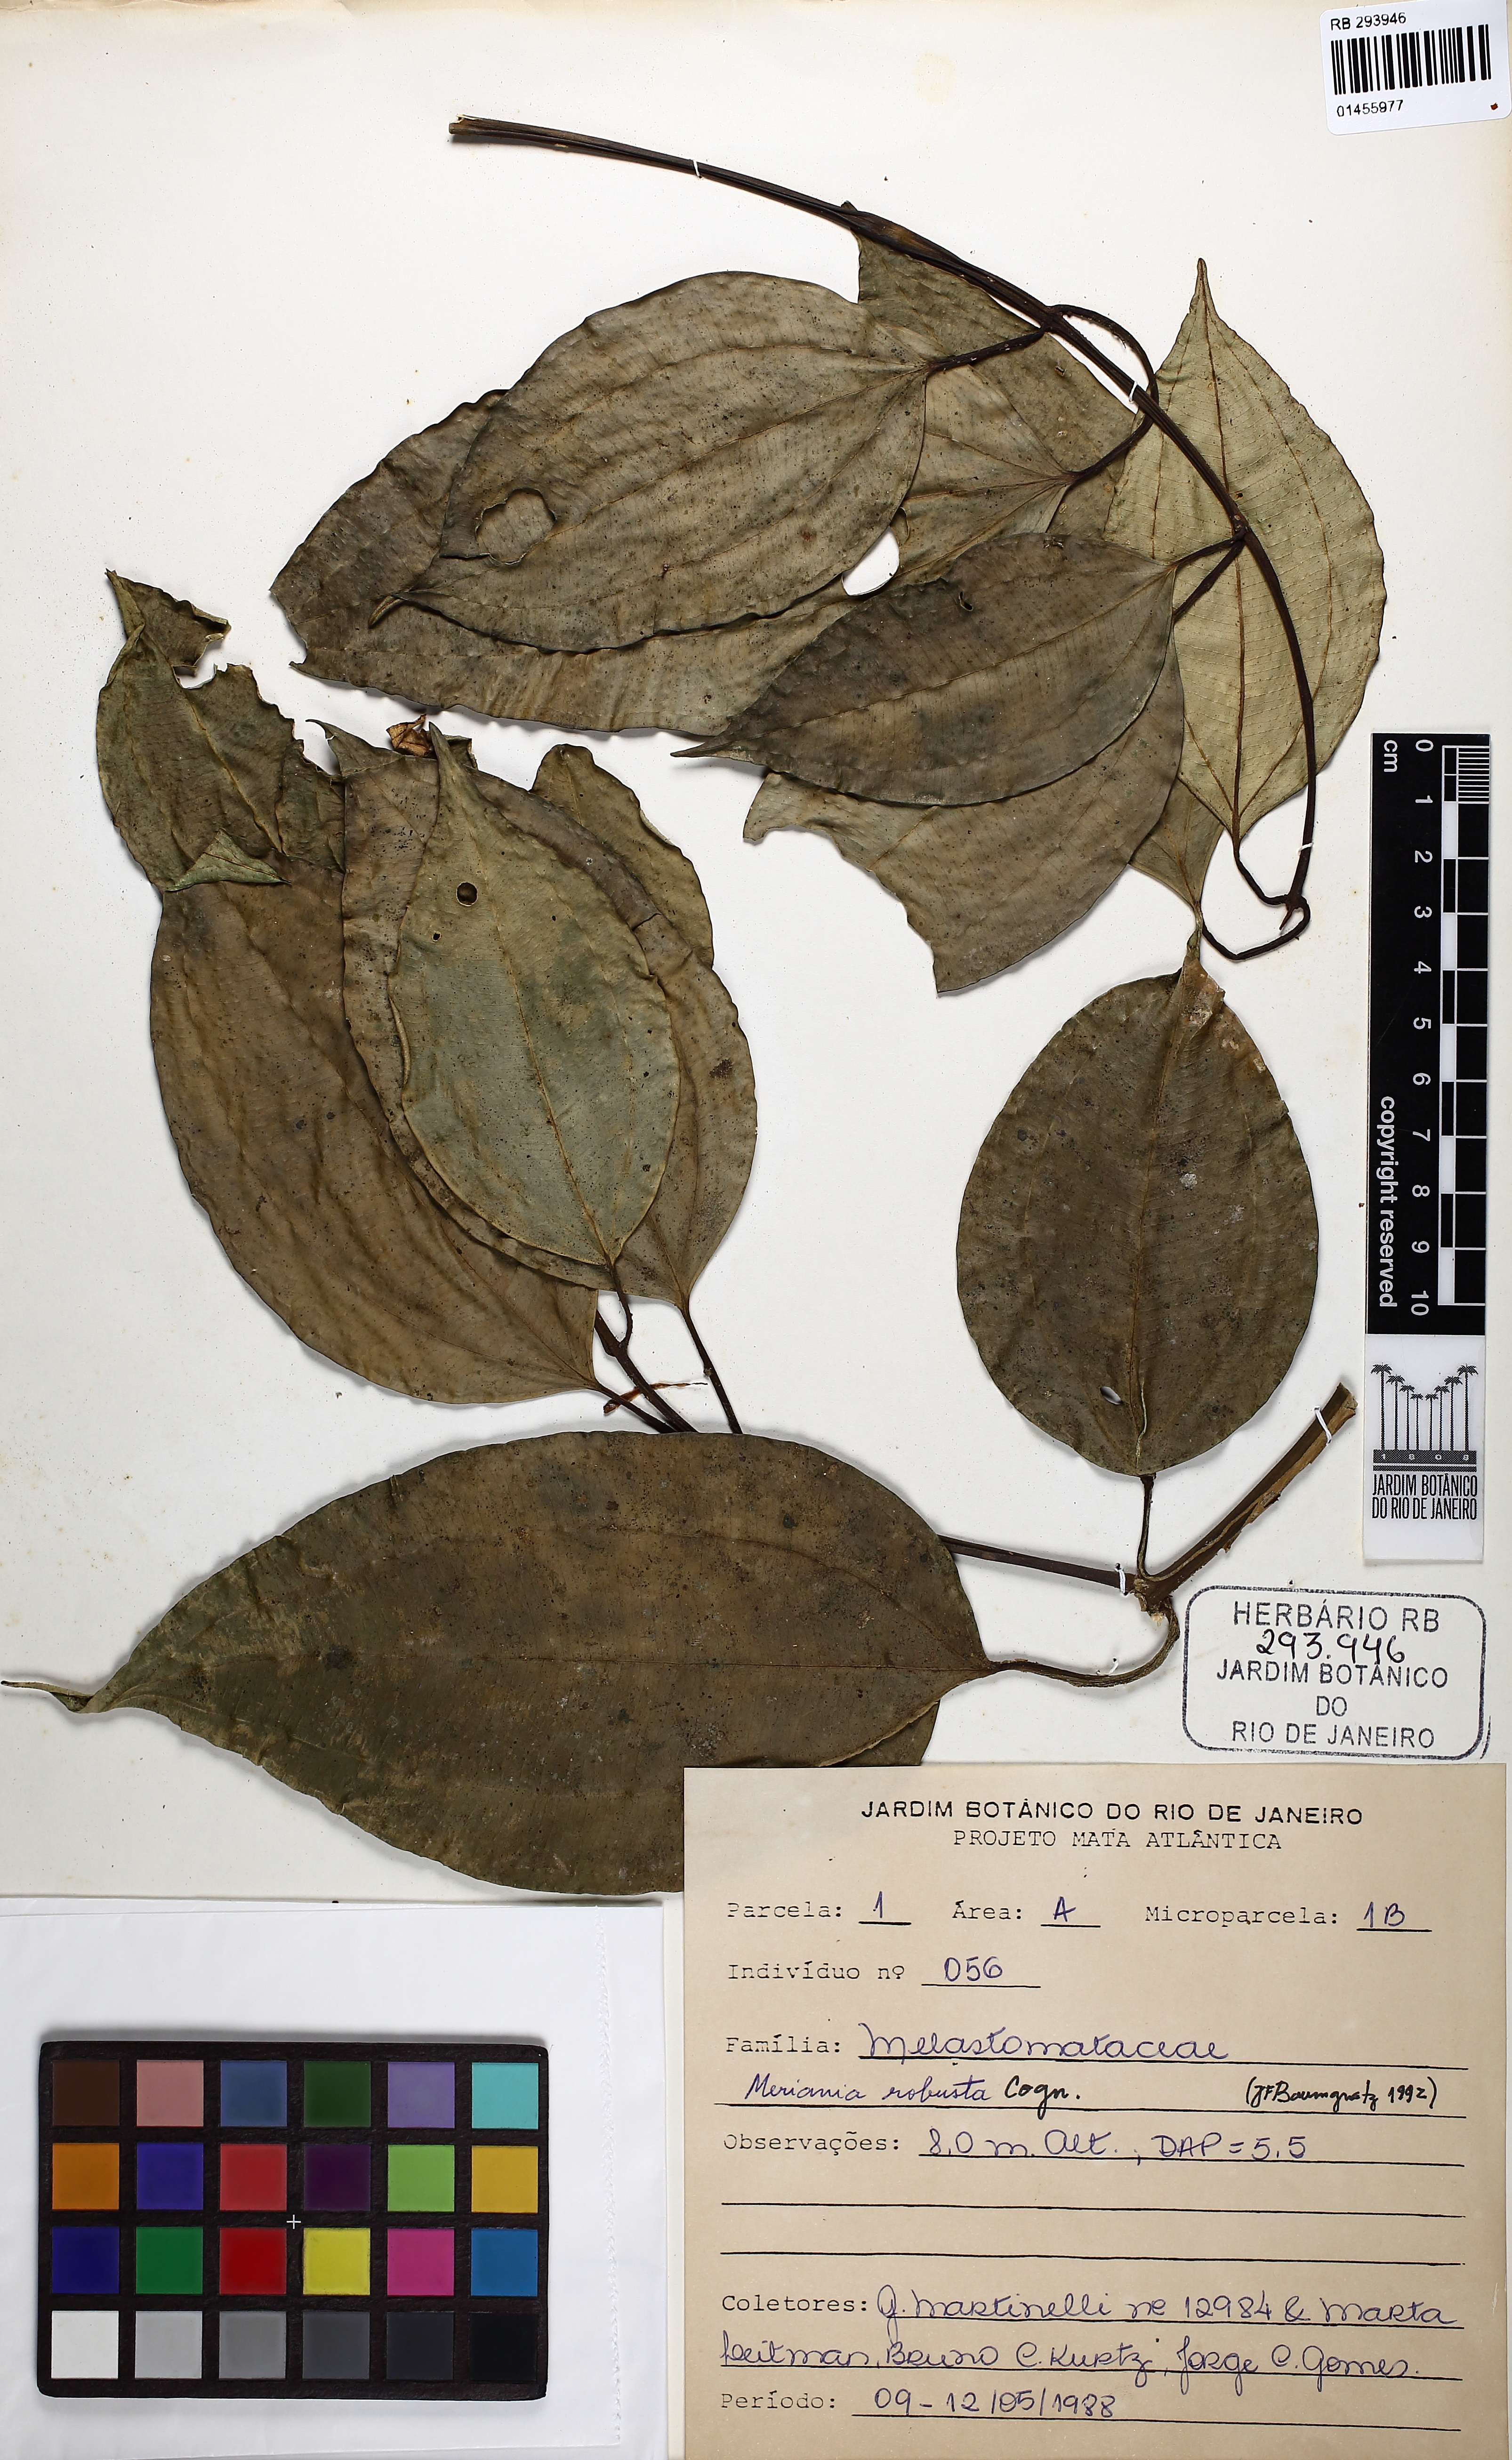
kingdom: Plantae
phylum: Tracheophyta
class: Magnoliopsida
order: Myrtales
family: Melastomataceae
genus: Meriania
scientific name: Meriania robusta
